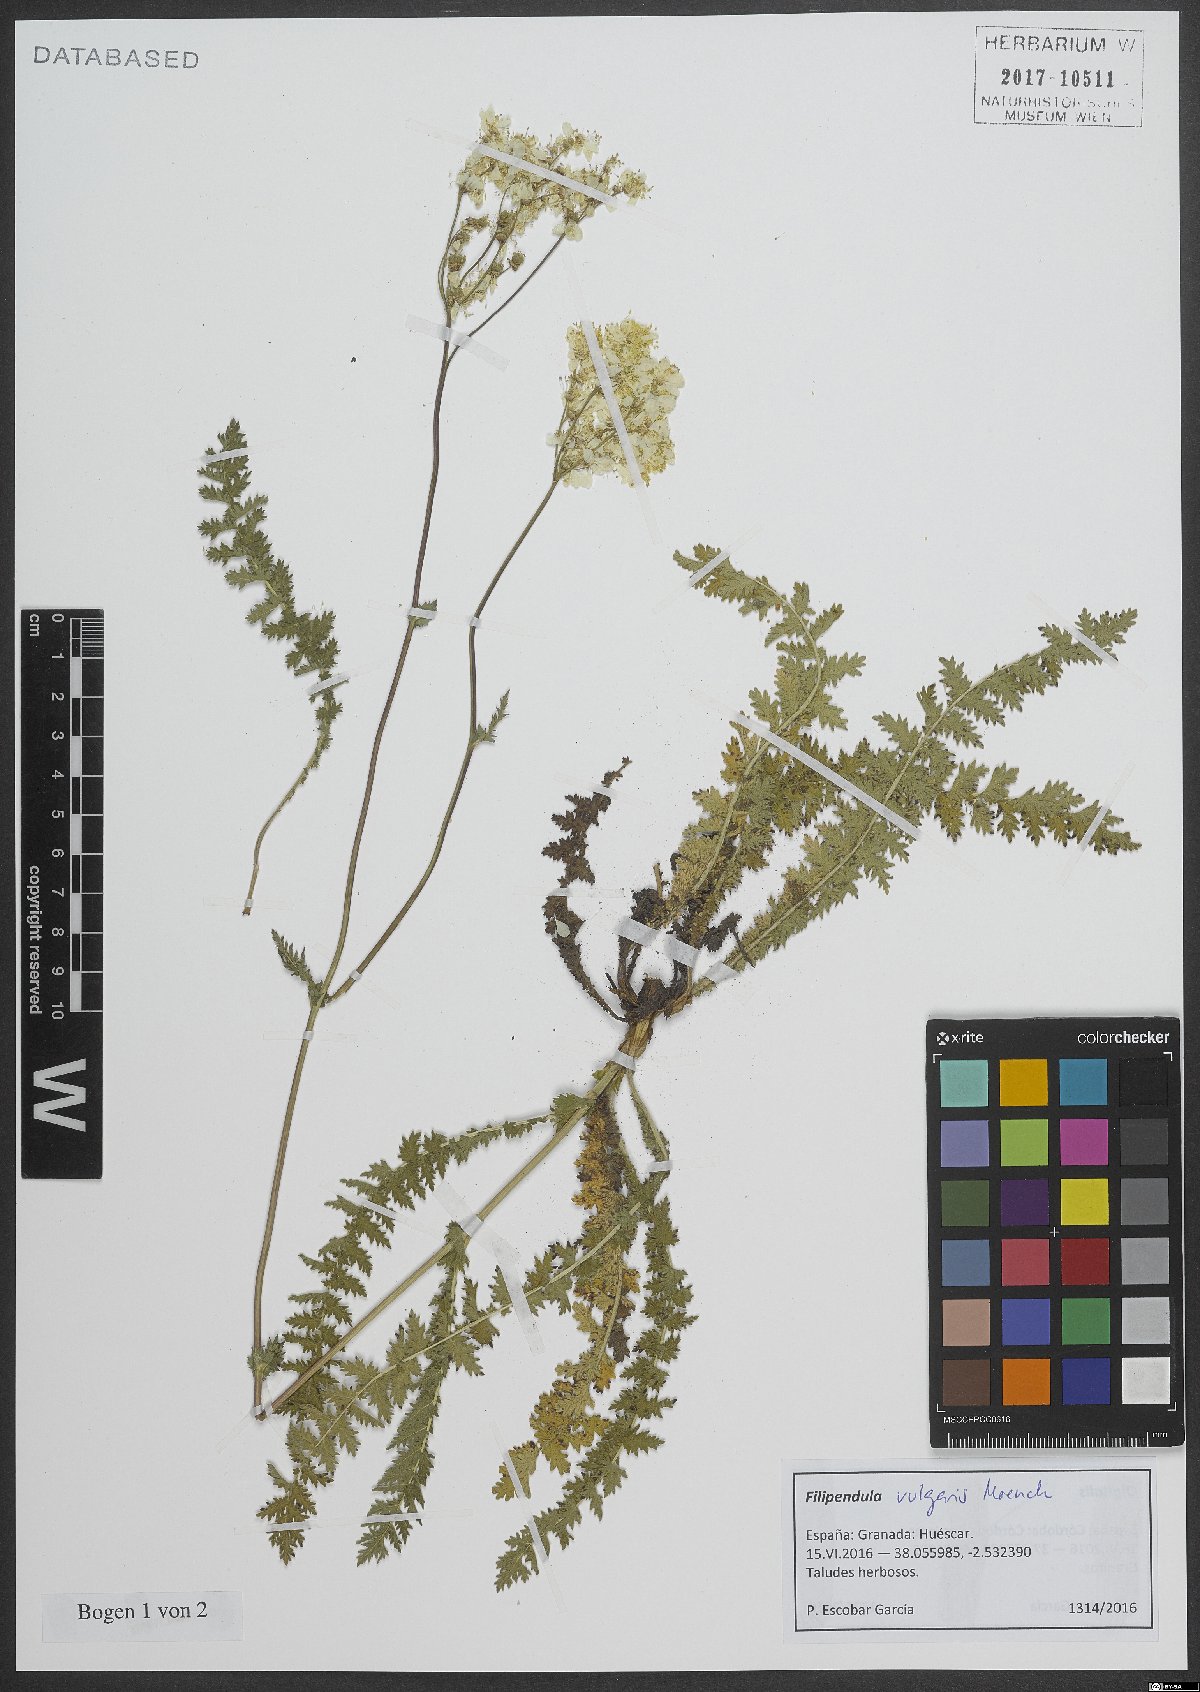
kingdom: Plantae
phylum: Tracheophyta
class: Magnoliopsida
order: Rosales
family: Rosaceae
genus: Filipendula
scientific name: Filipendula vulgaris
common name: Dropwort
